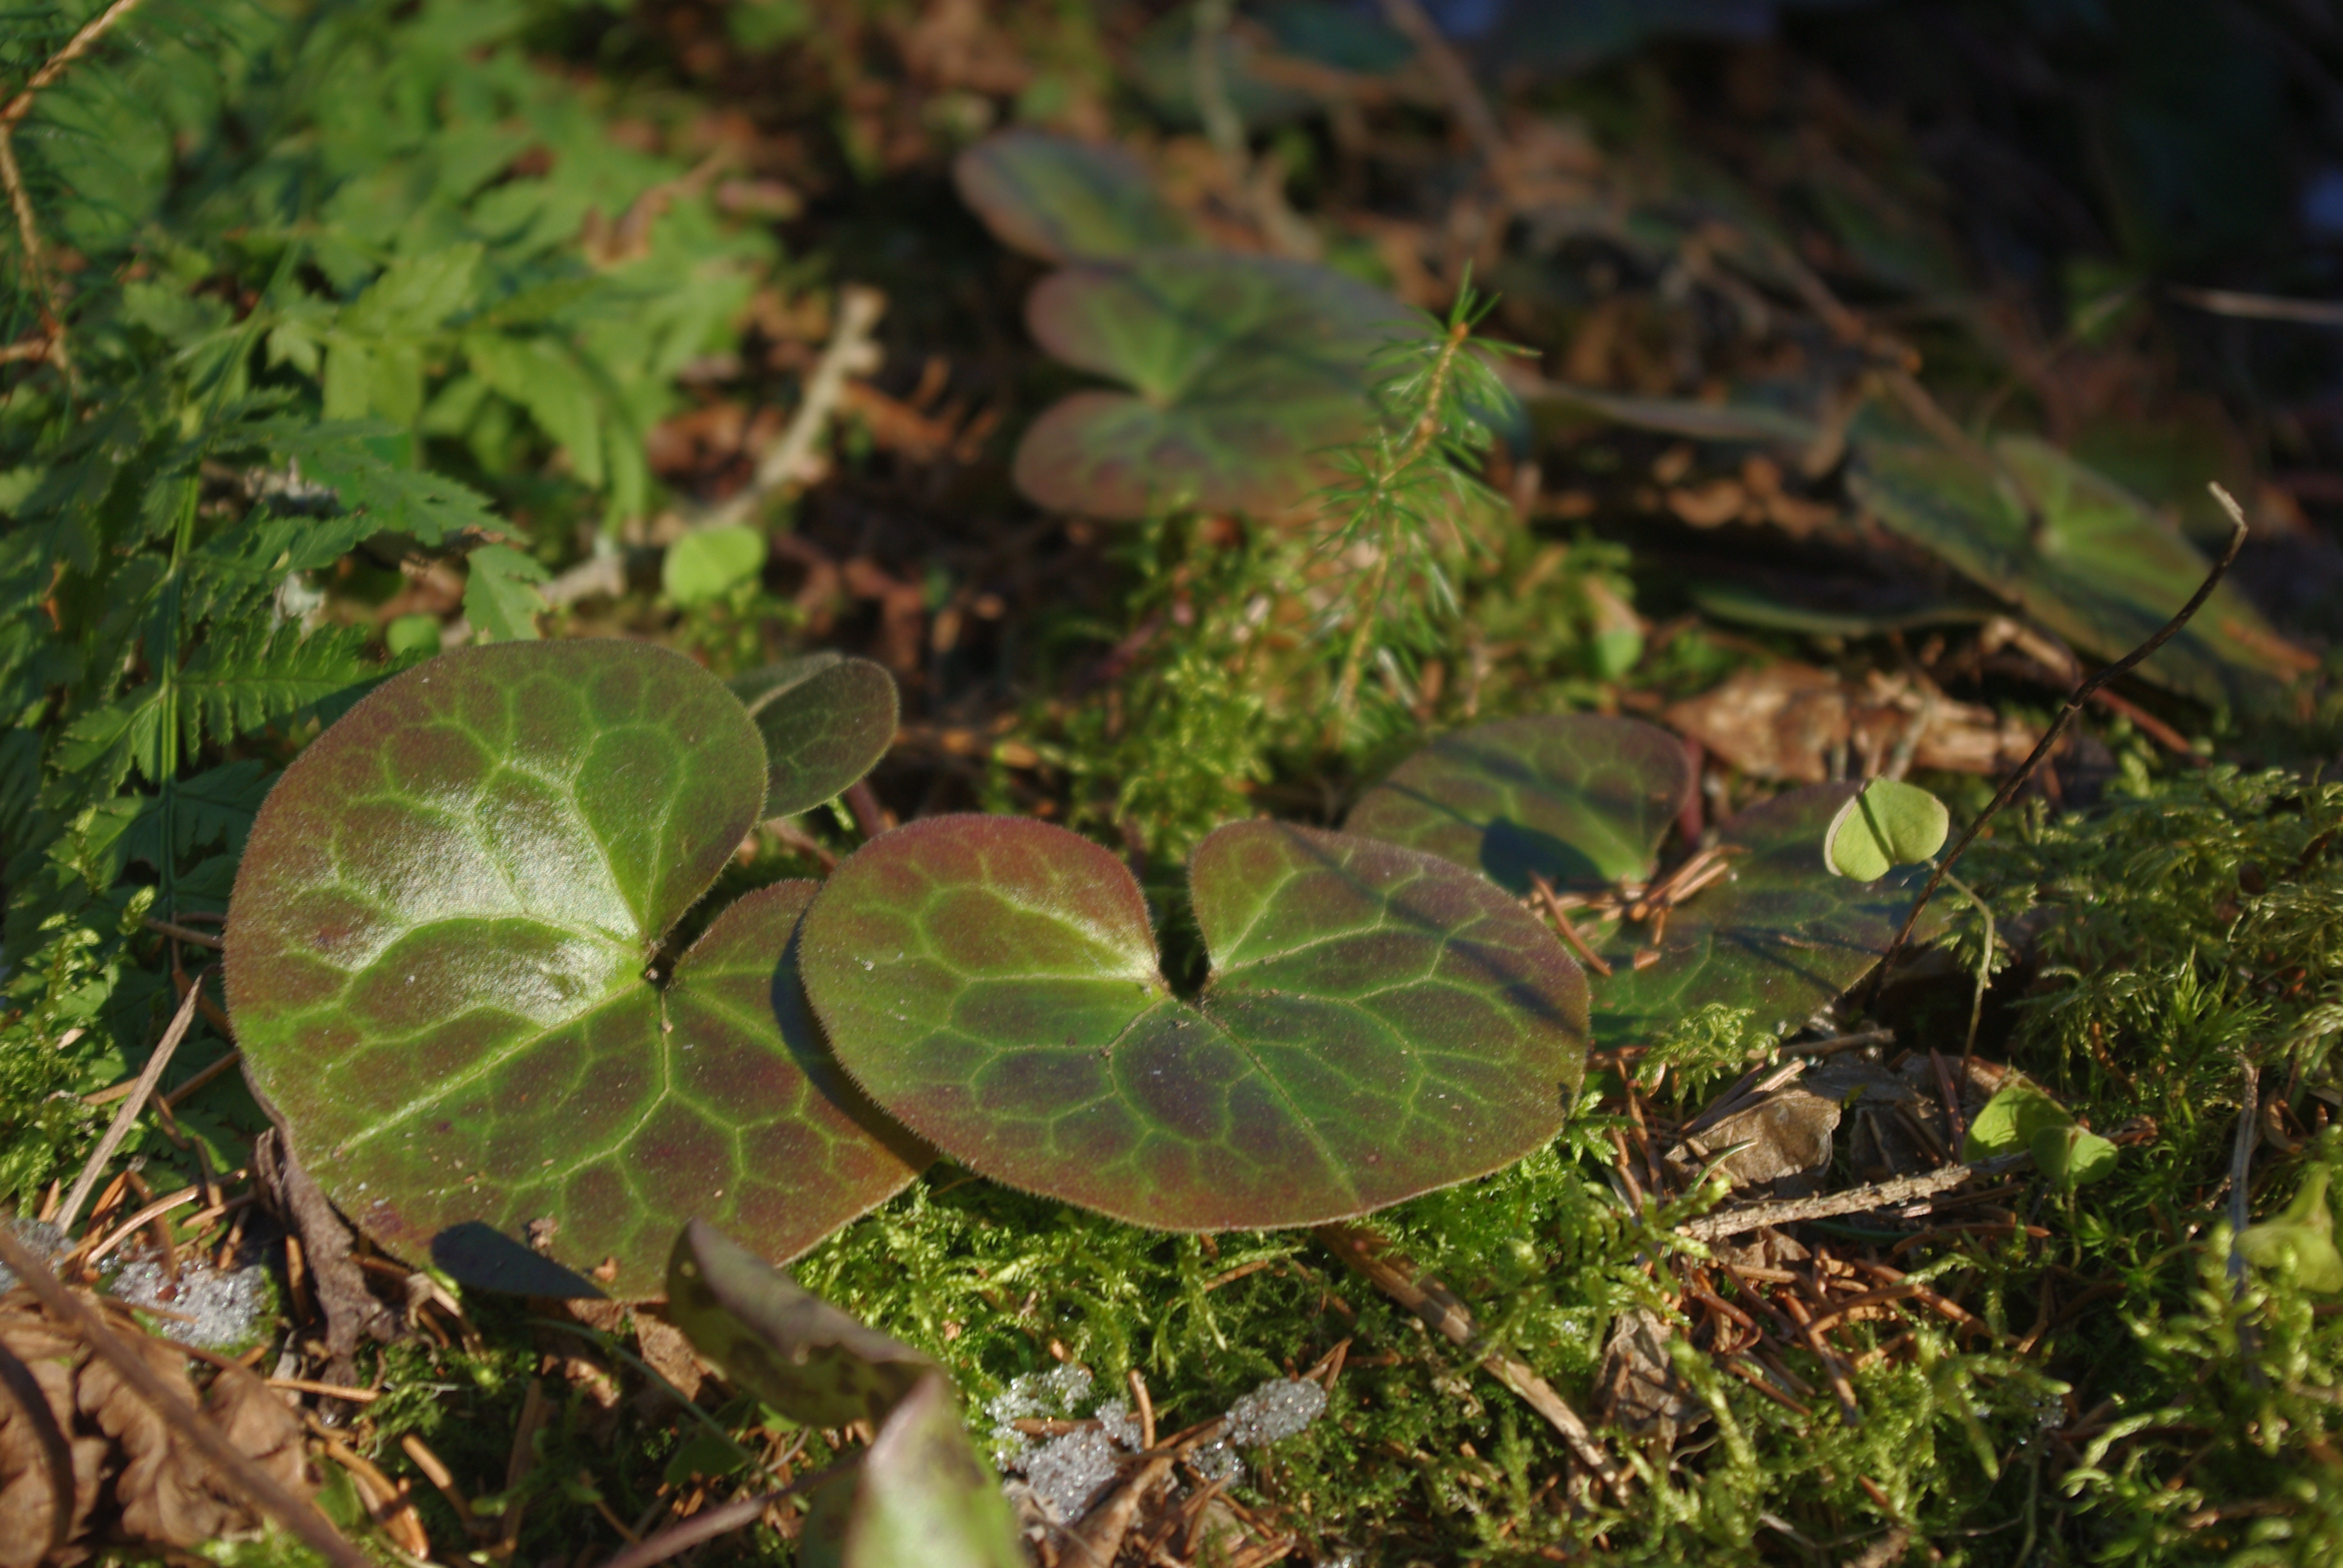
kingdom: Plantae
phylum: Tracheophyta
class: Magnoliopsida
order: Piperales
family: Aristolochiaceae
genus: Asarum
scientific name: Asarum europaeum
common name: Asarabacca
